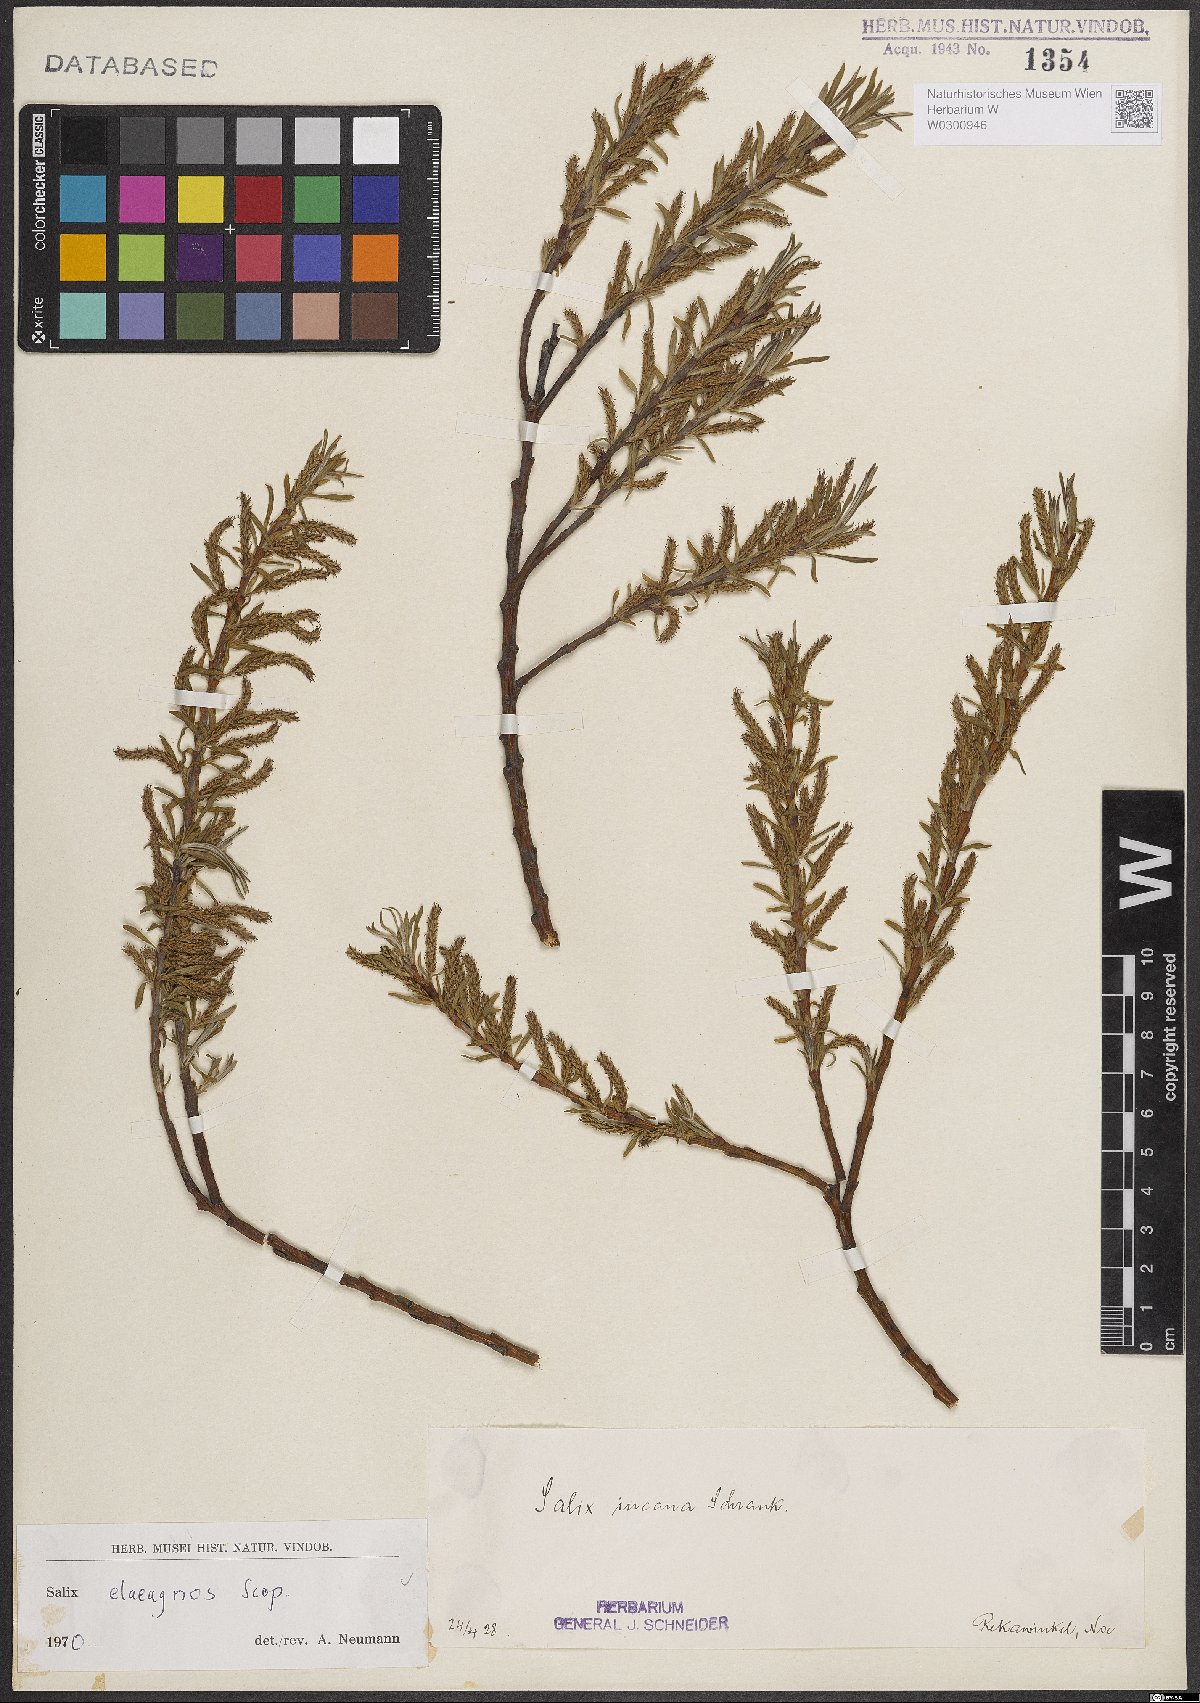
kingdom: Plantae
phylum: Tracheophyta
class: Magnoliopsida
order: Malpighiales
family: Salicaceae
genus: Salix
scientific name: Salix eleagnos
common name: Elaeagnus willow
